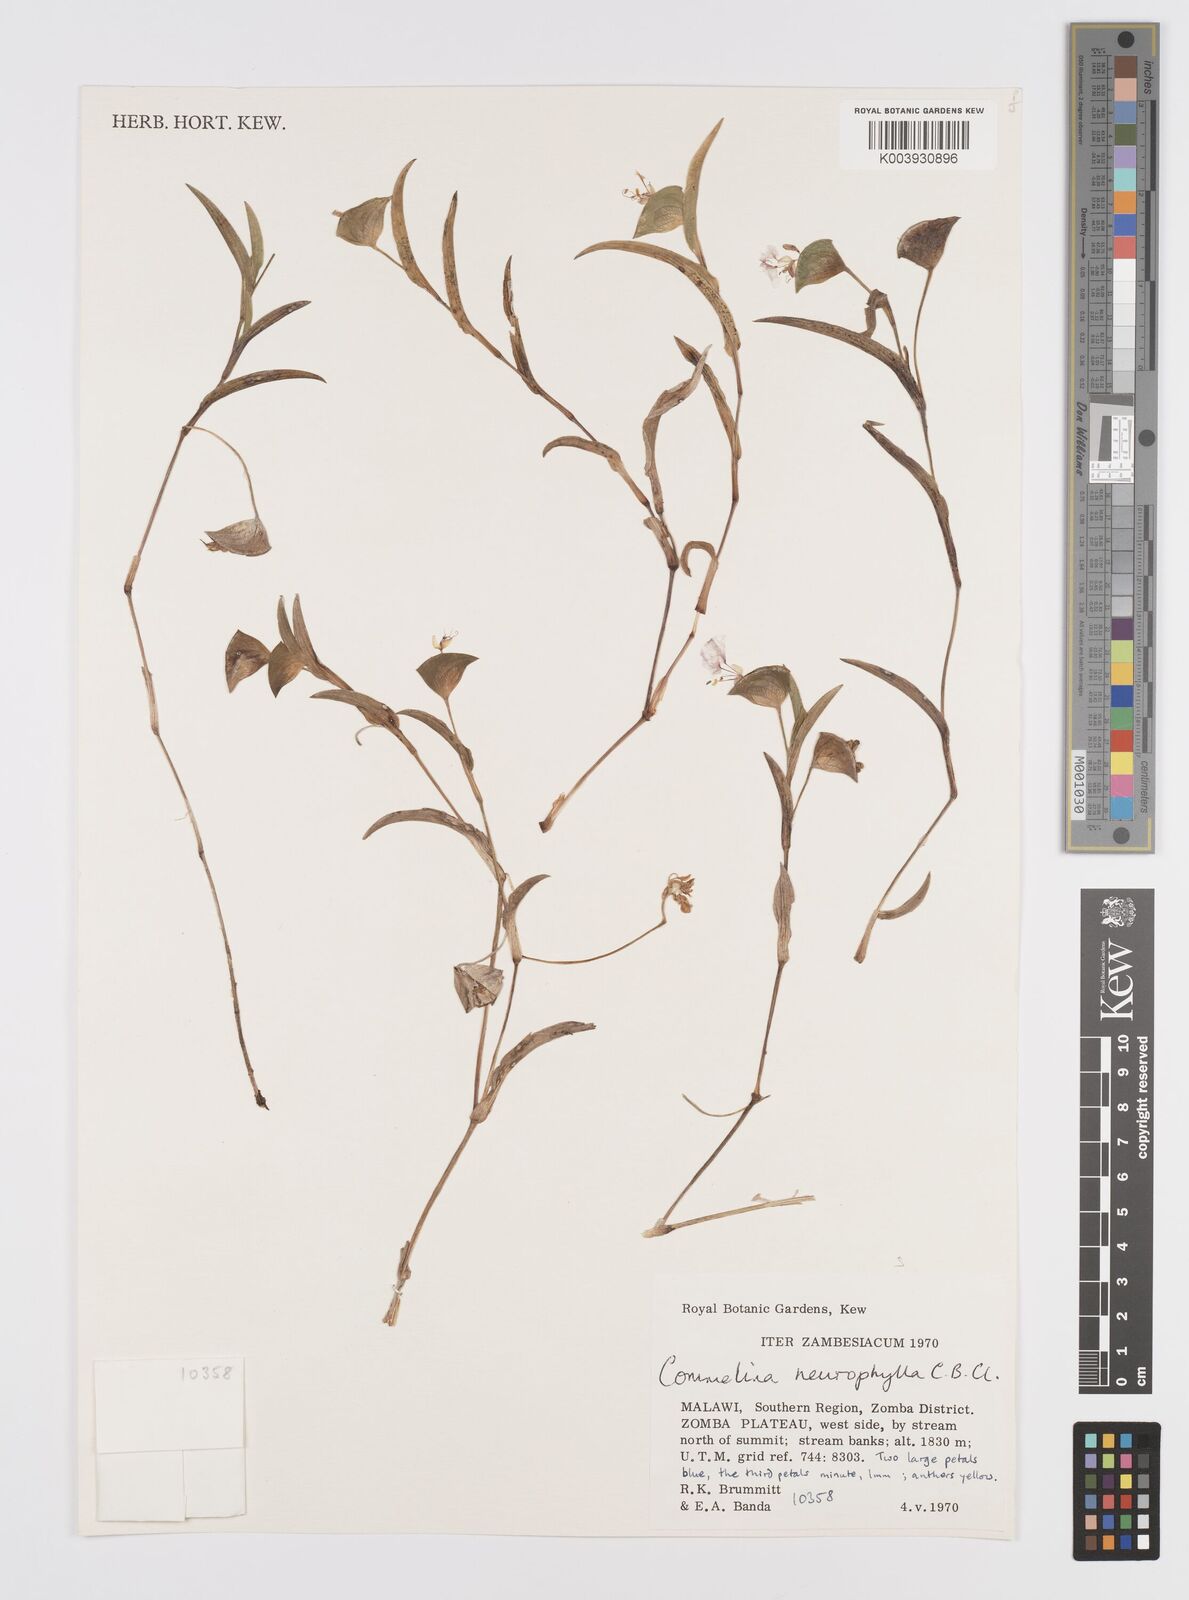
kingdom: Plantae
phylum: Tracheophyta
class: Liliopsida
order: Commelinales
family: Commelinaceae
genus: Commelina
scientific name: Commelina neurophylla
